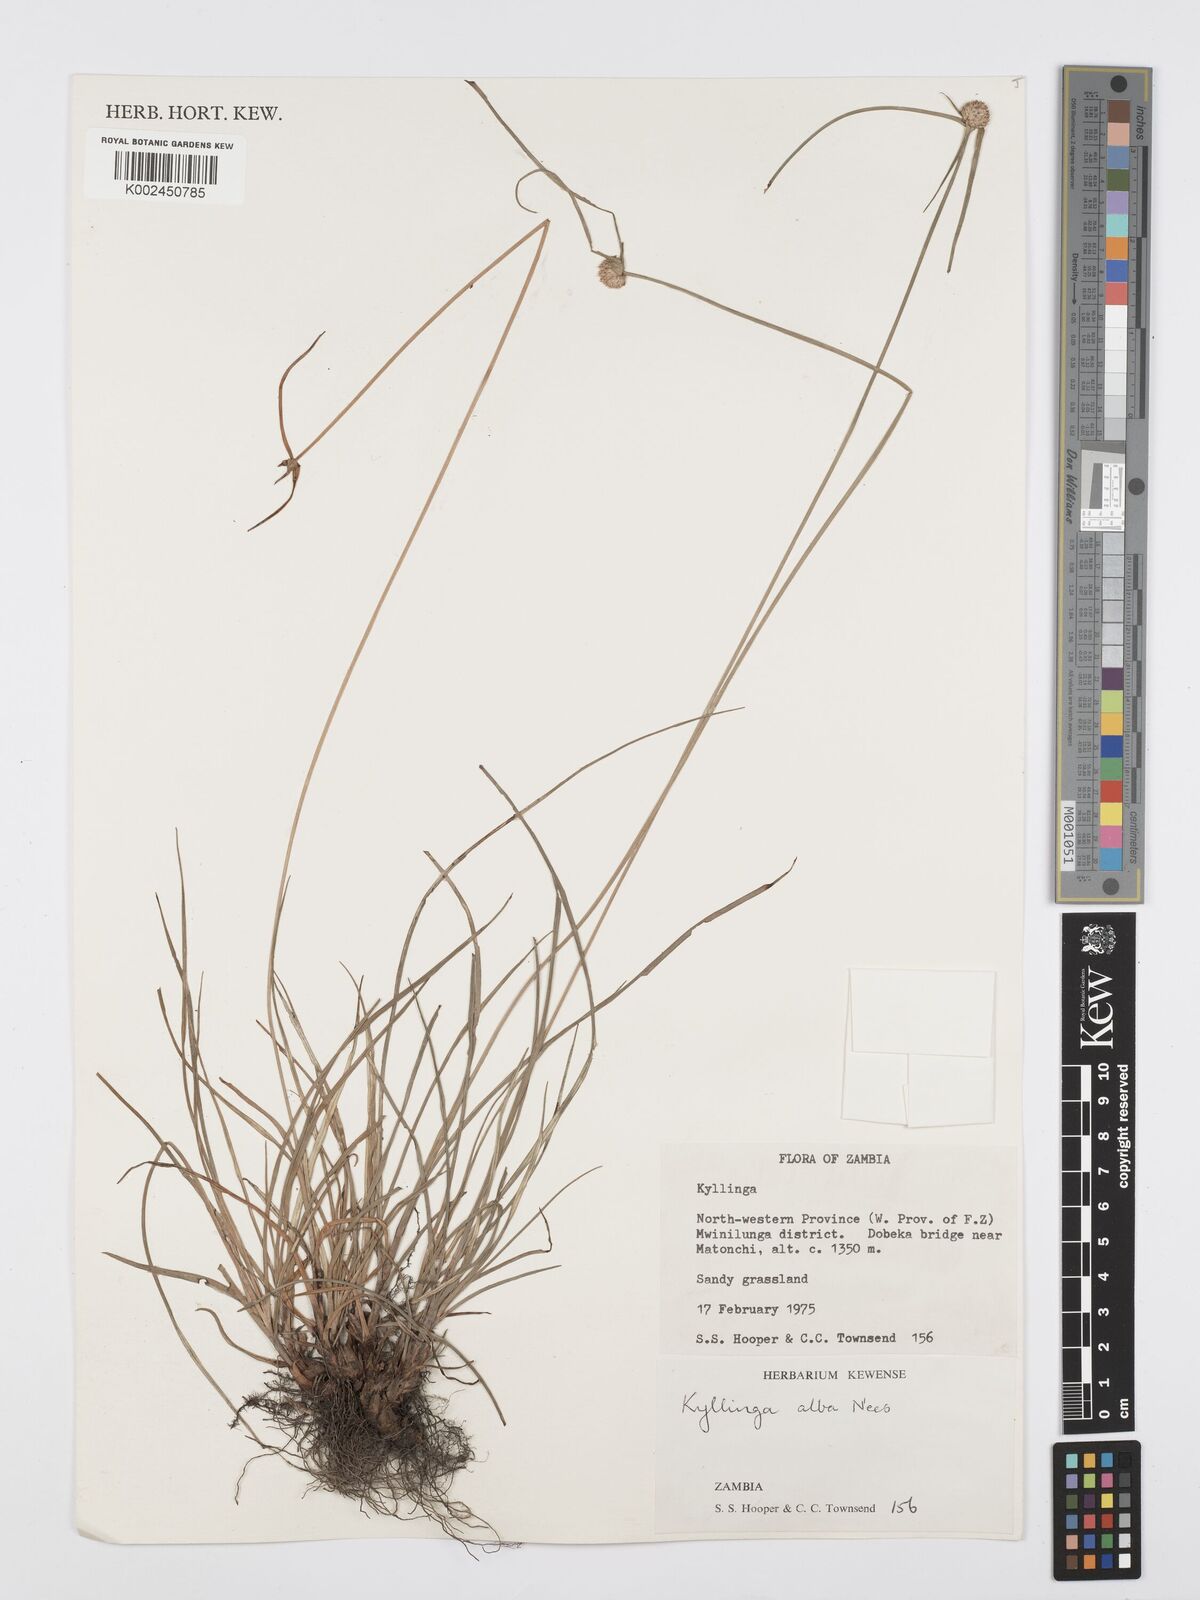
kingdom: Plantae
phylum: Tracheophyta
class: Liliopsida
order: Poales
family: Cyperaceae
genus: Cyperus
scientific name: Cyperus rukwanus
